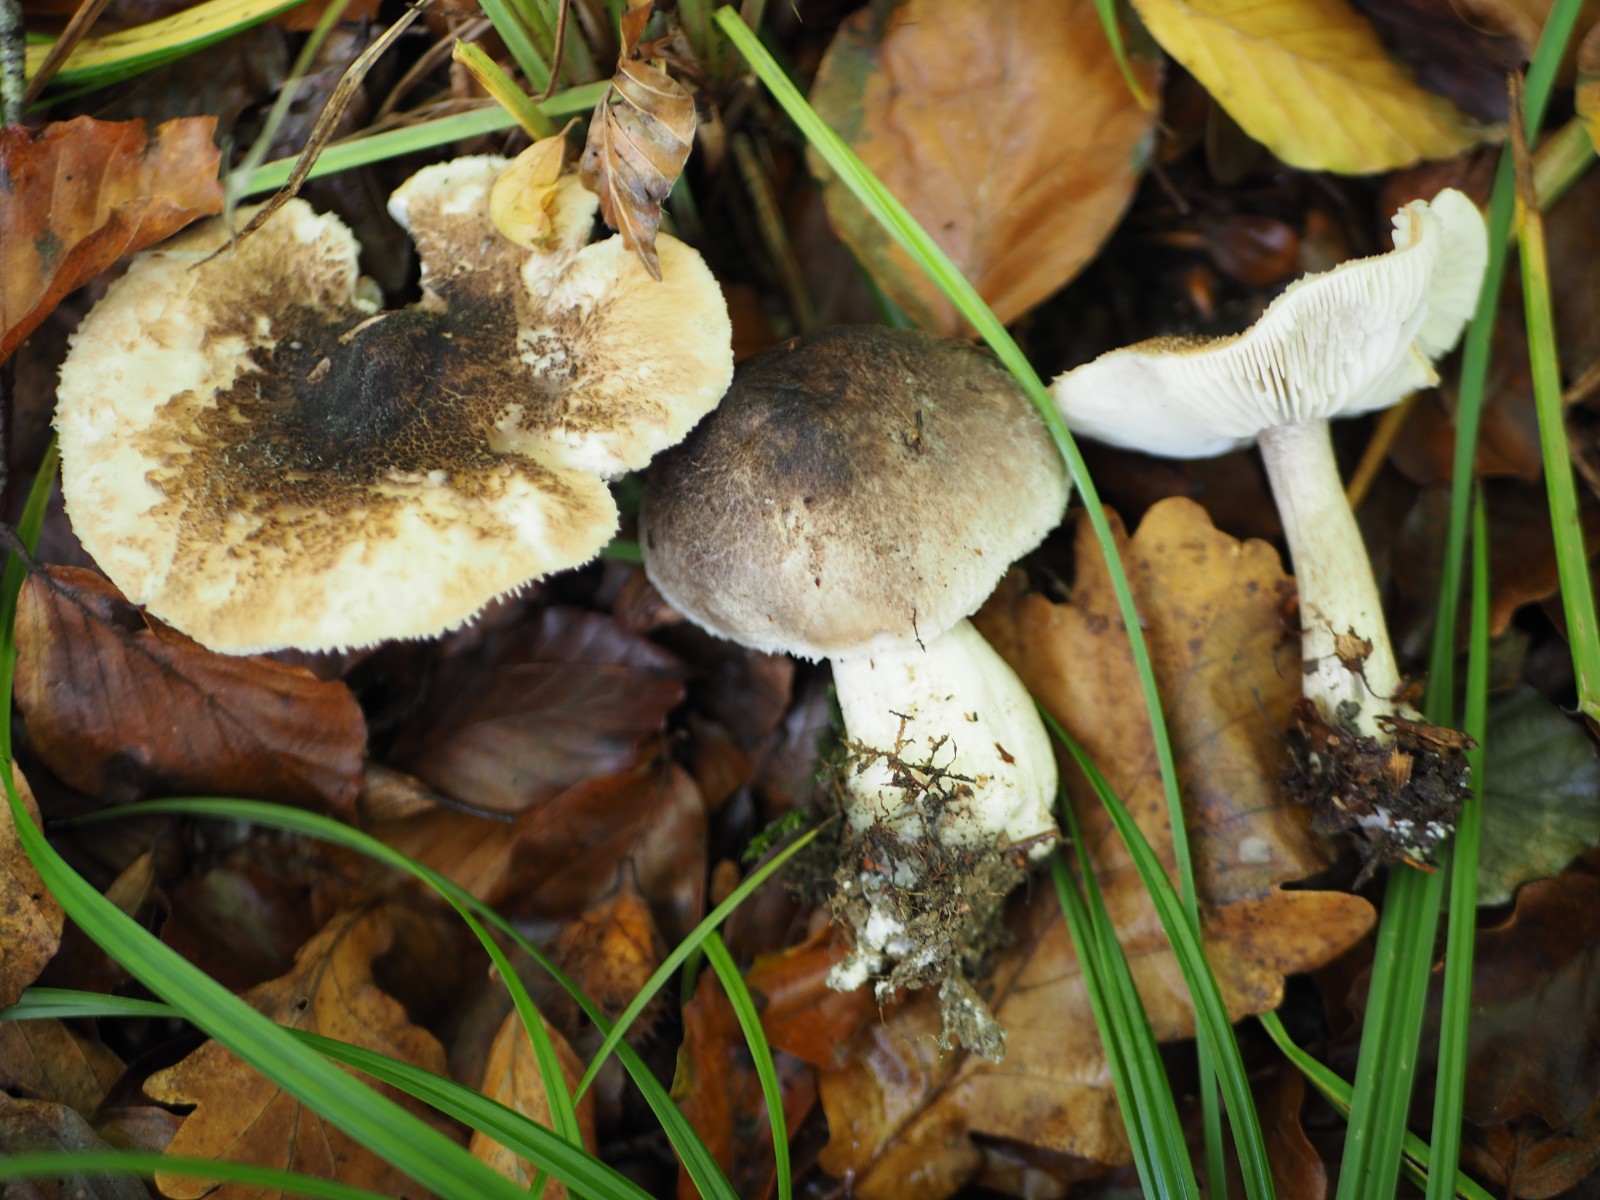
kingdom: Fungi
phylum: Basidiomycota
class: Agaricomycetes
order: Agaricales
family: Tricholomataceae
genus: Tricholoma
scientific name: Tricholoma atrosquamosum
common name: sortskællet ridderhat
